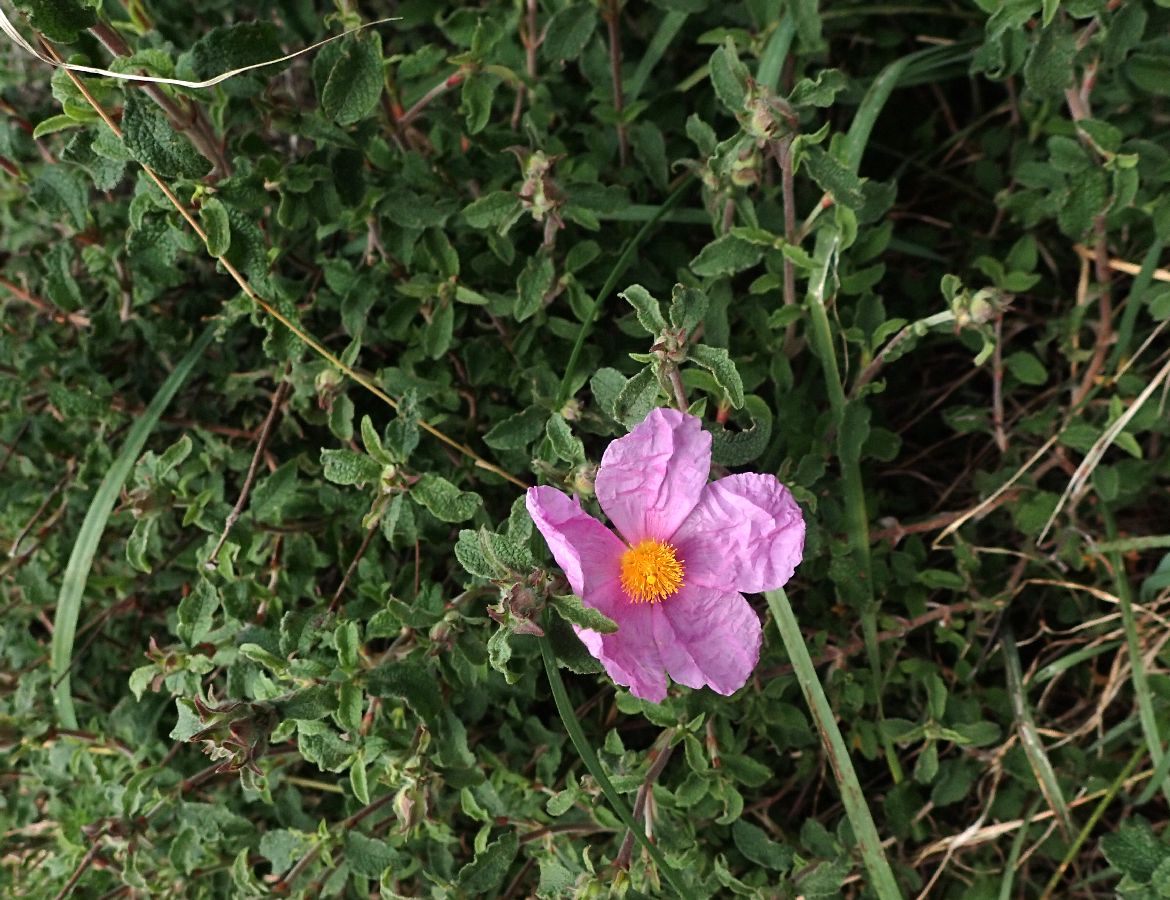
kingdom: Plantae
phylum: Tracheophyta
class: Magnoliopsida
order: Malvales
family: Cistaceae
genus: Cistus
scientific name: Cistus creticus
